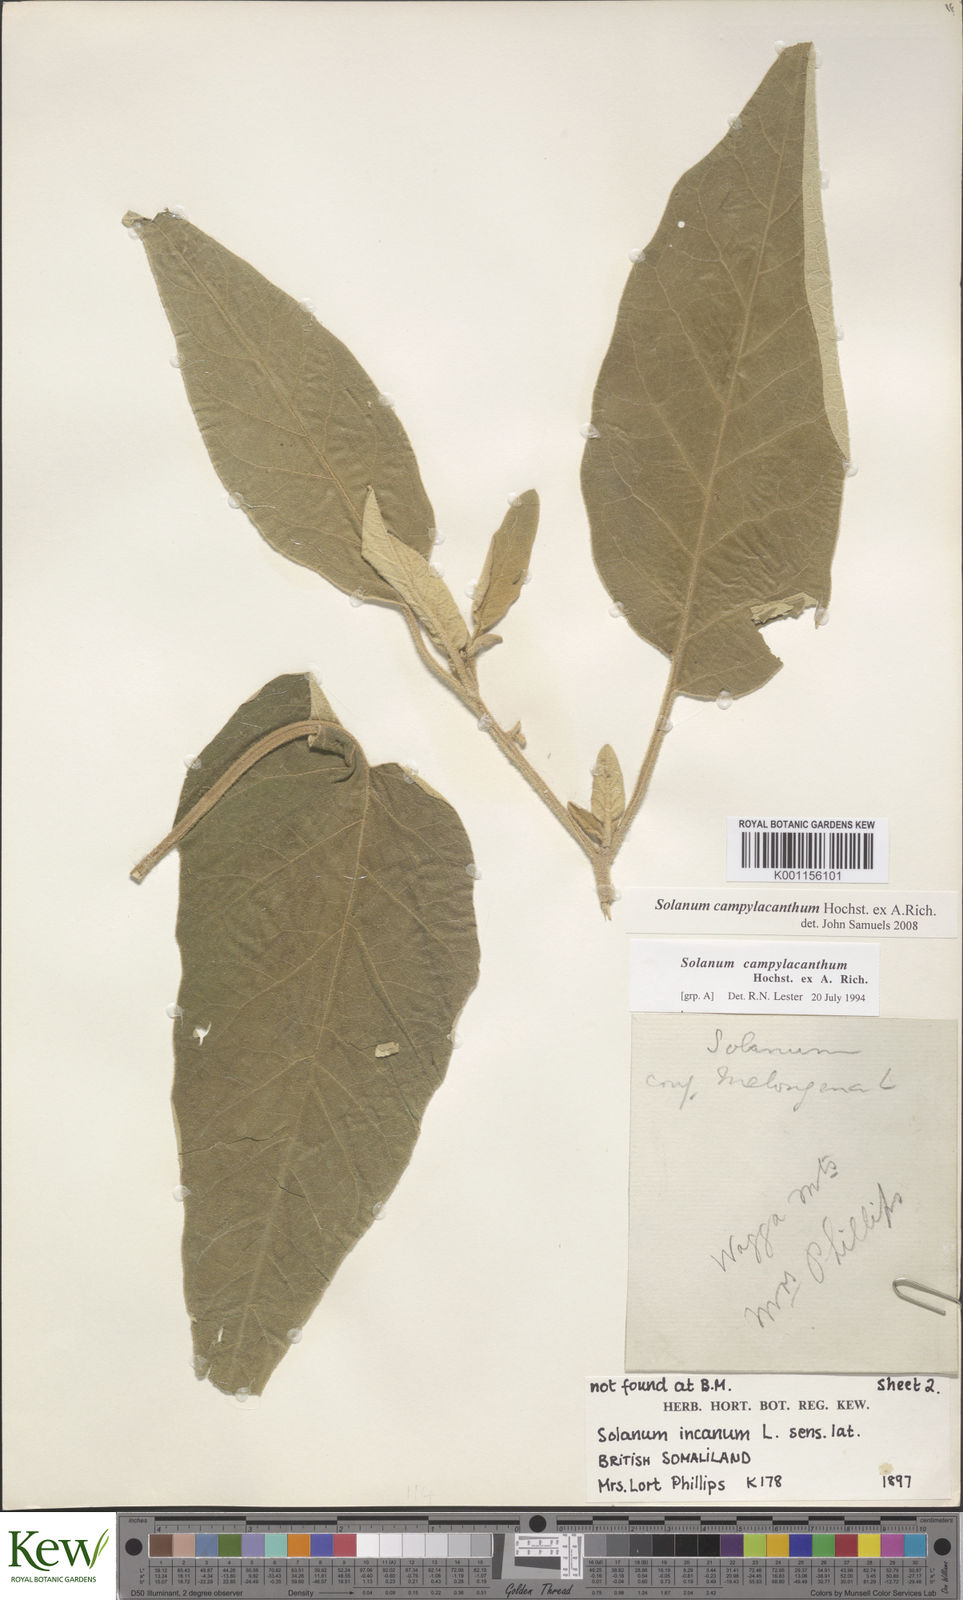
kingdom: Plantae
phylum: Tracheophyta
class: Magnoliopsida
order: Solanales
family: Solanaceae
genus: Solanum
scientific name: Solanum campylacanthum
